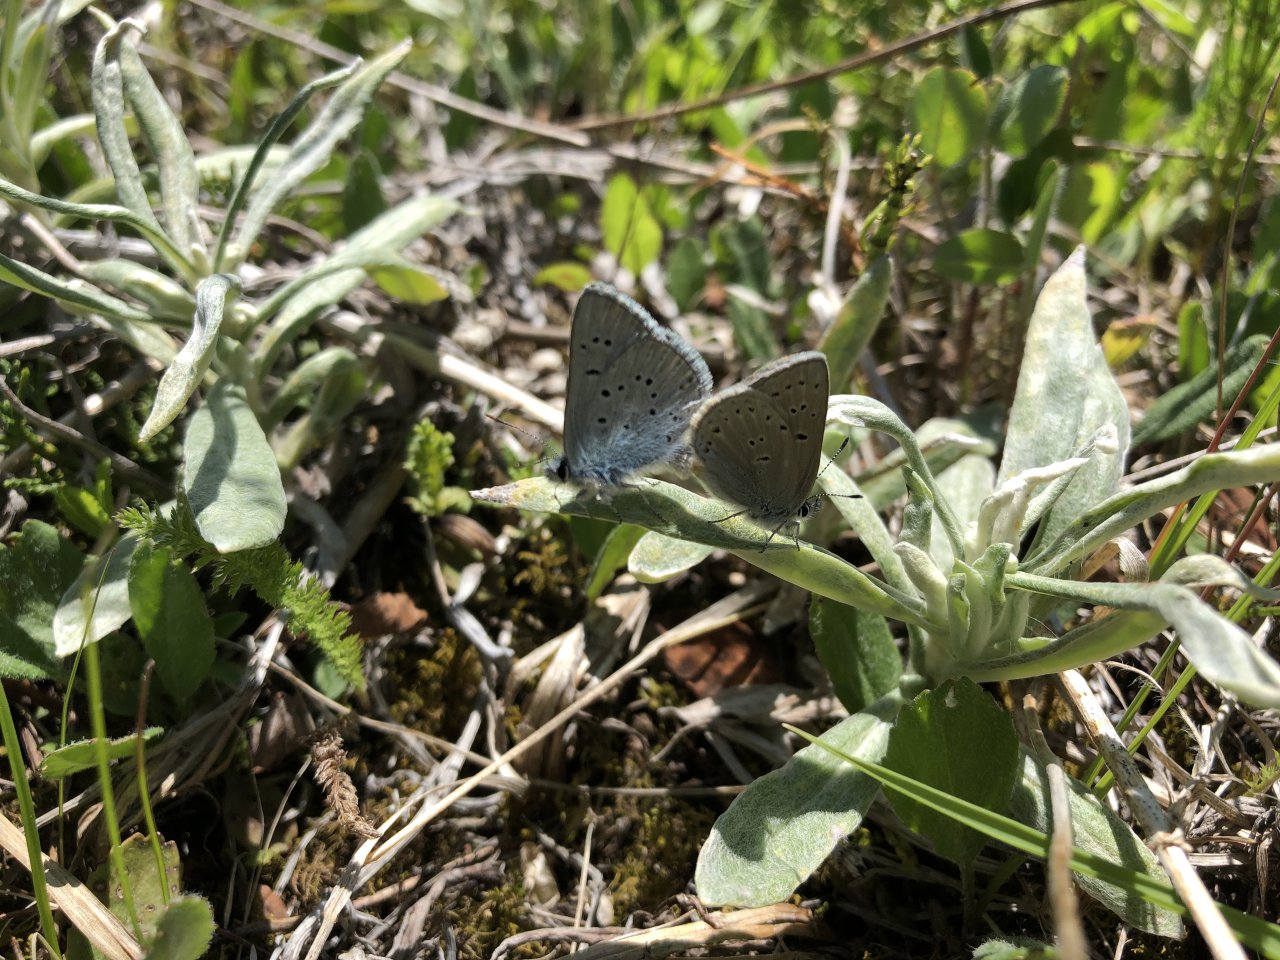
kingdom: Animalia
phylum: Arthropoda
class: Insecta
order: Lepidoptera
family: Lycaenidae
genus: Plebejus
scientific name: Plebejus saepiolus
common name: Greenish Blue
